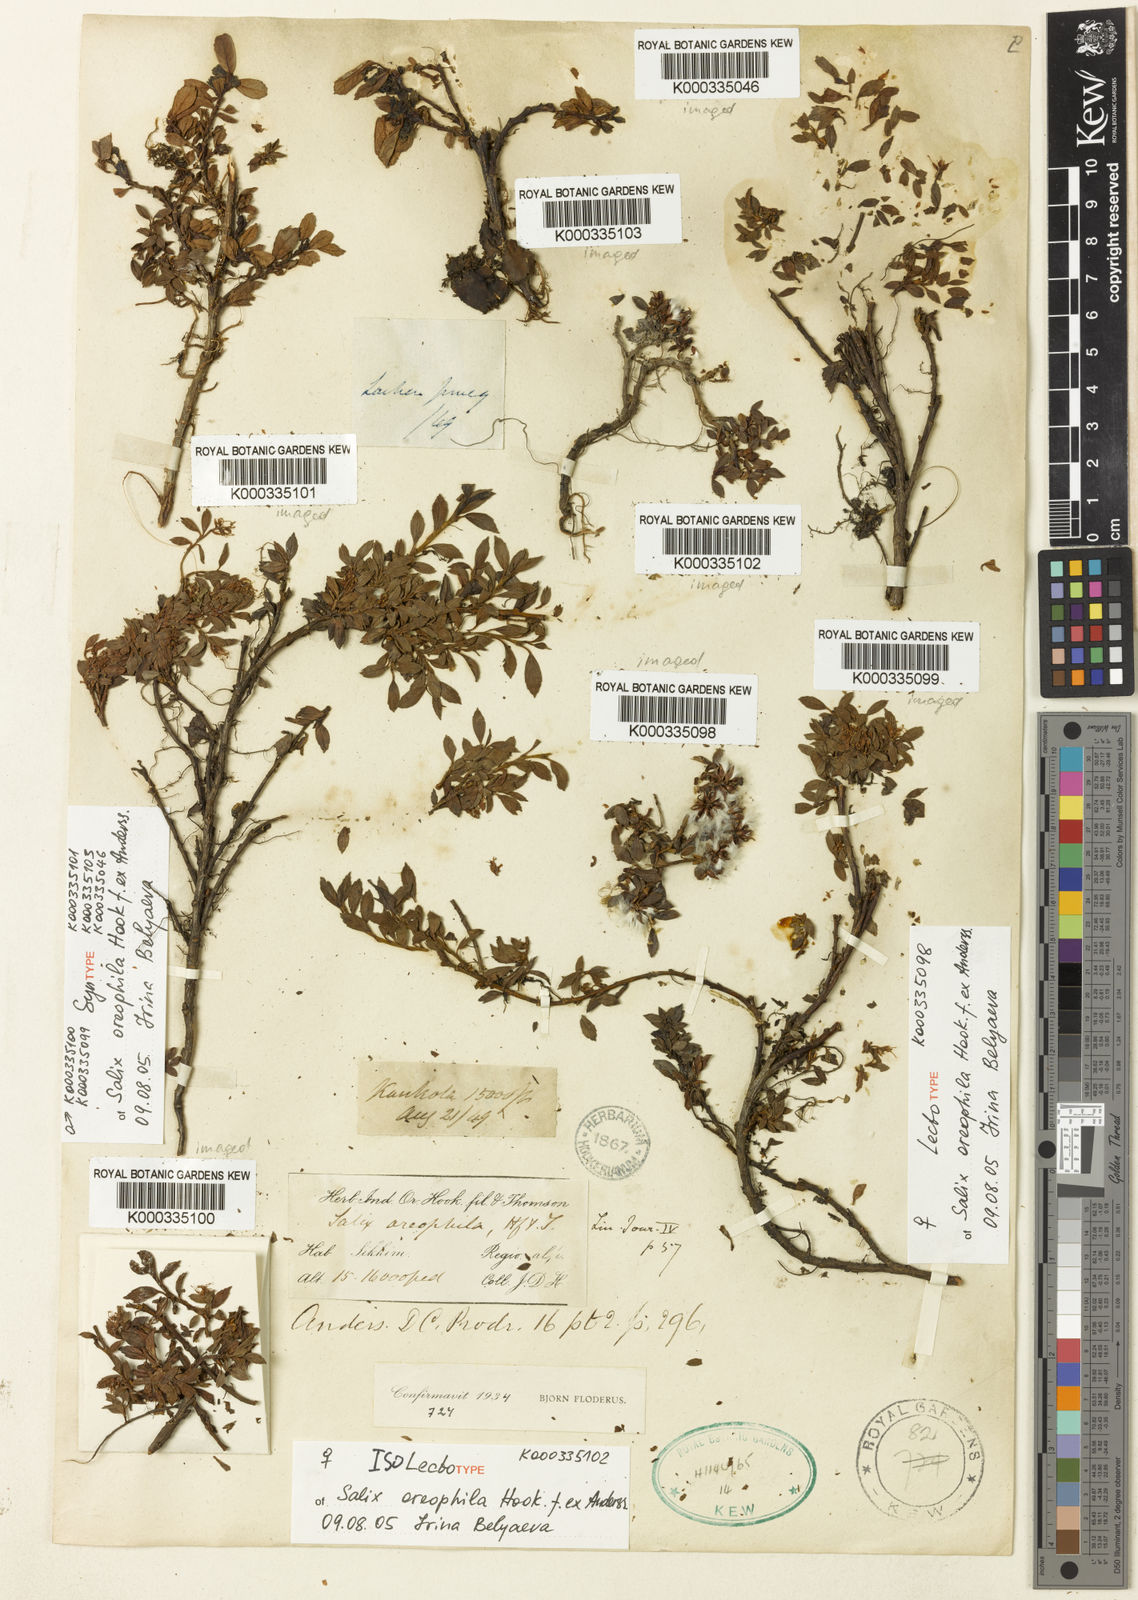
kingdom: Plantae
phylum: Tracheophyta
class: Magnoliopsida
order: Malpighiales
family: Salicaceae
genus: Salix
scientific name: Salix oreophila
